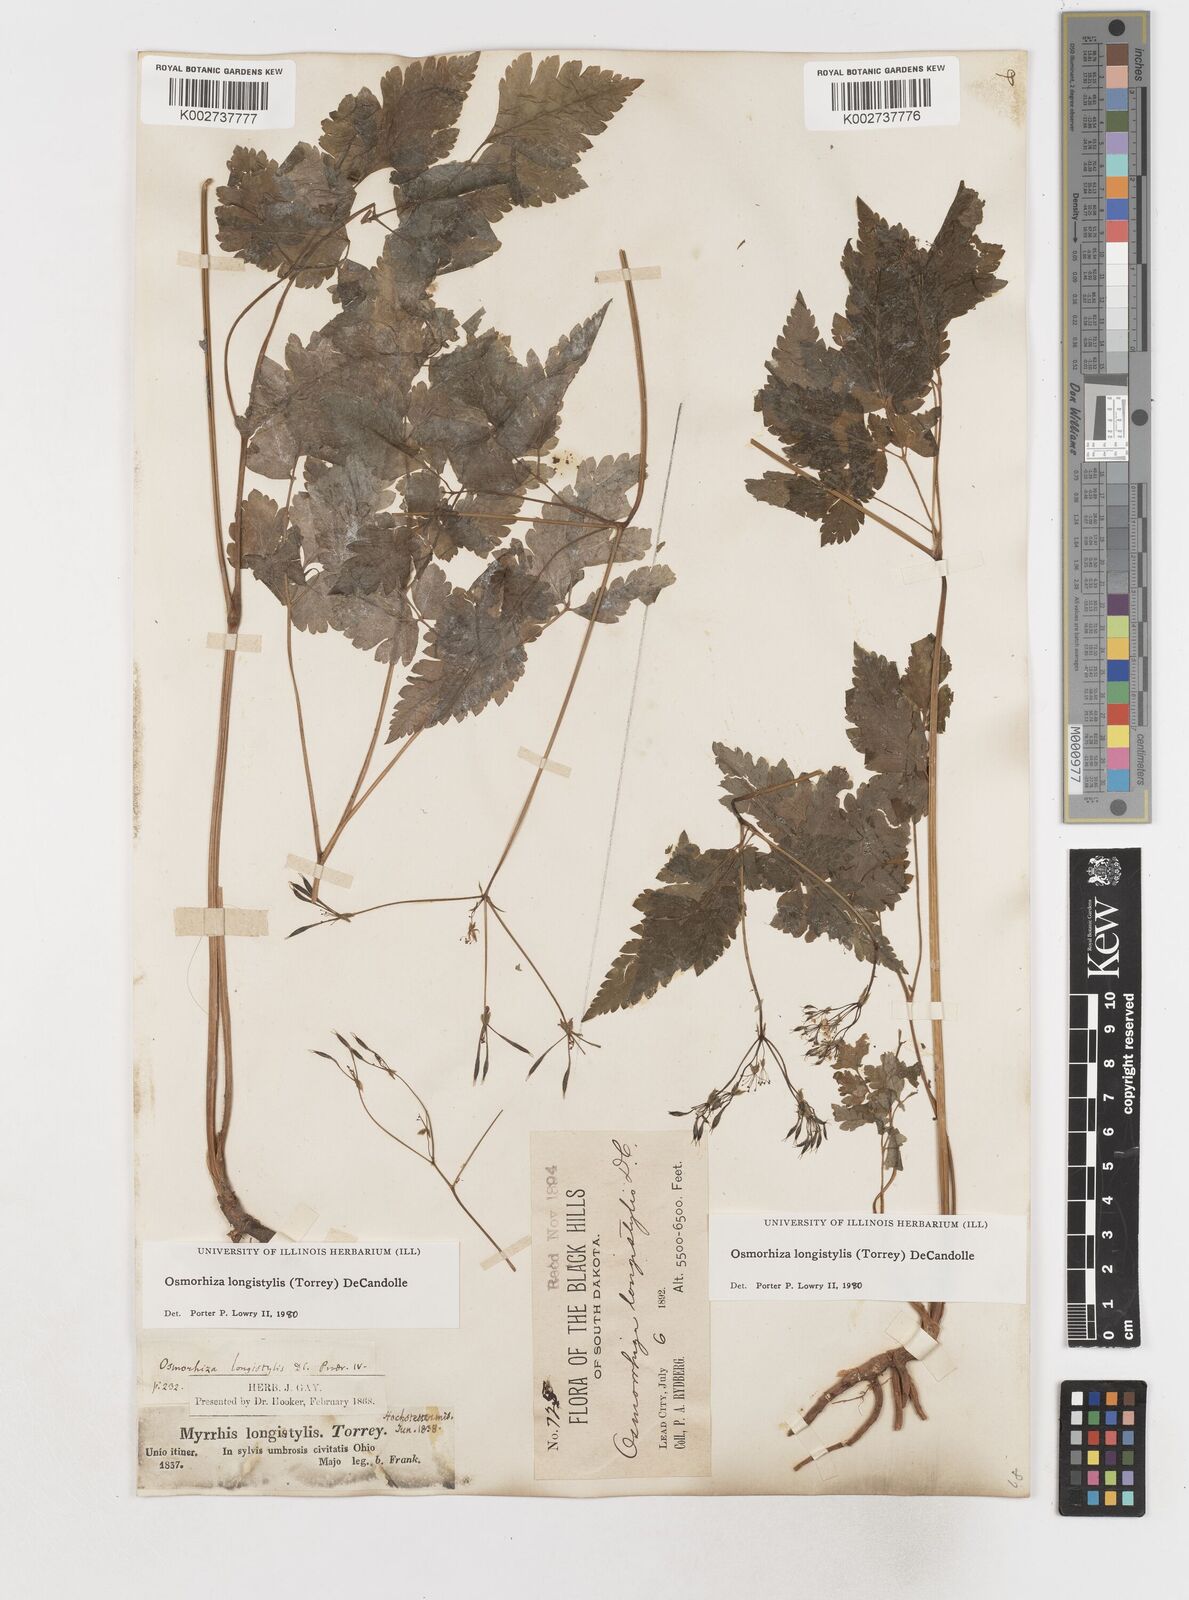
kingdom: Plantae
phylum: Tracheophyta
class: Magnoliopsida
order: Apiales
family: Apiaceae
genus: Osmorhiza
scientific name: Osmorhiza longistylis
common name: Smooth sweet cicely
